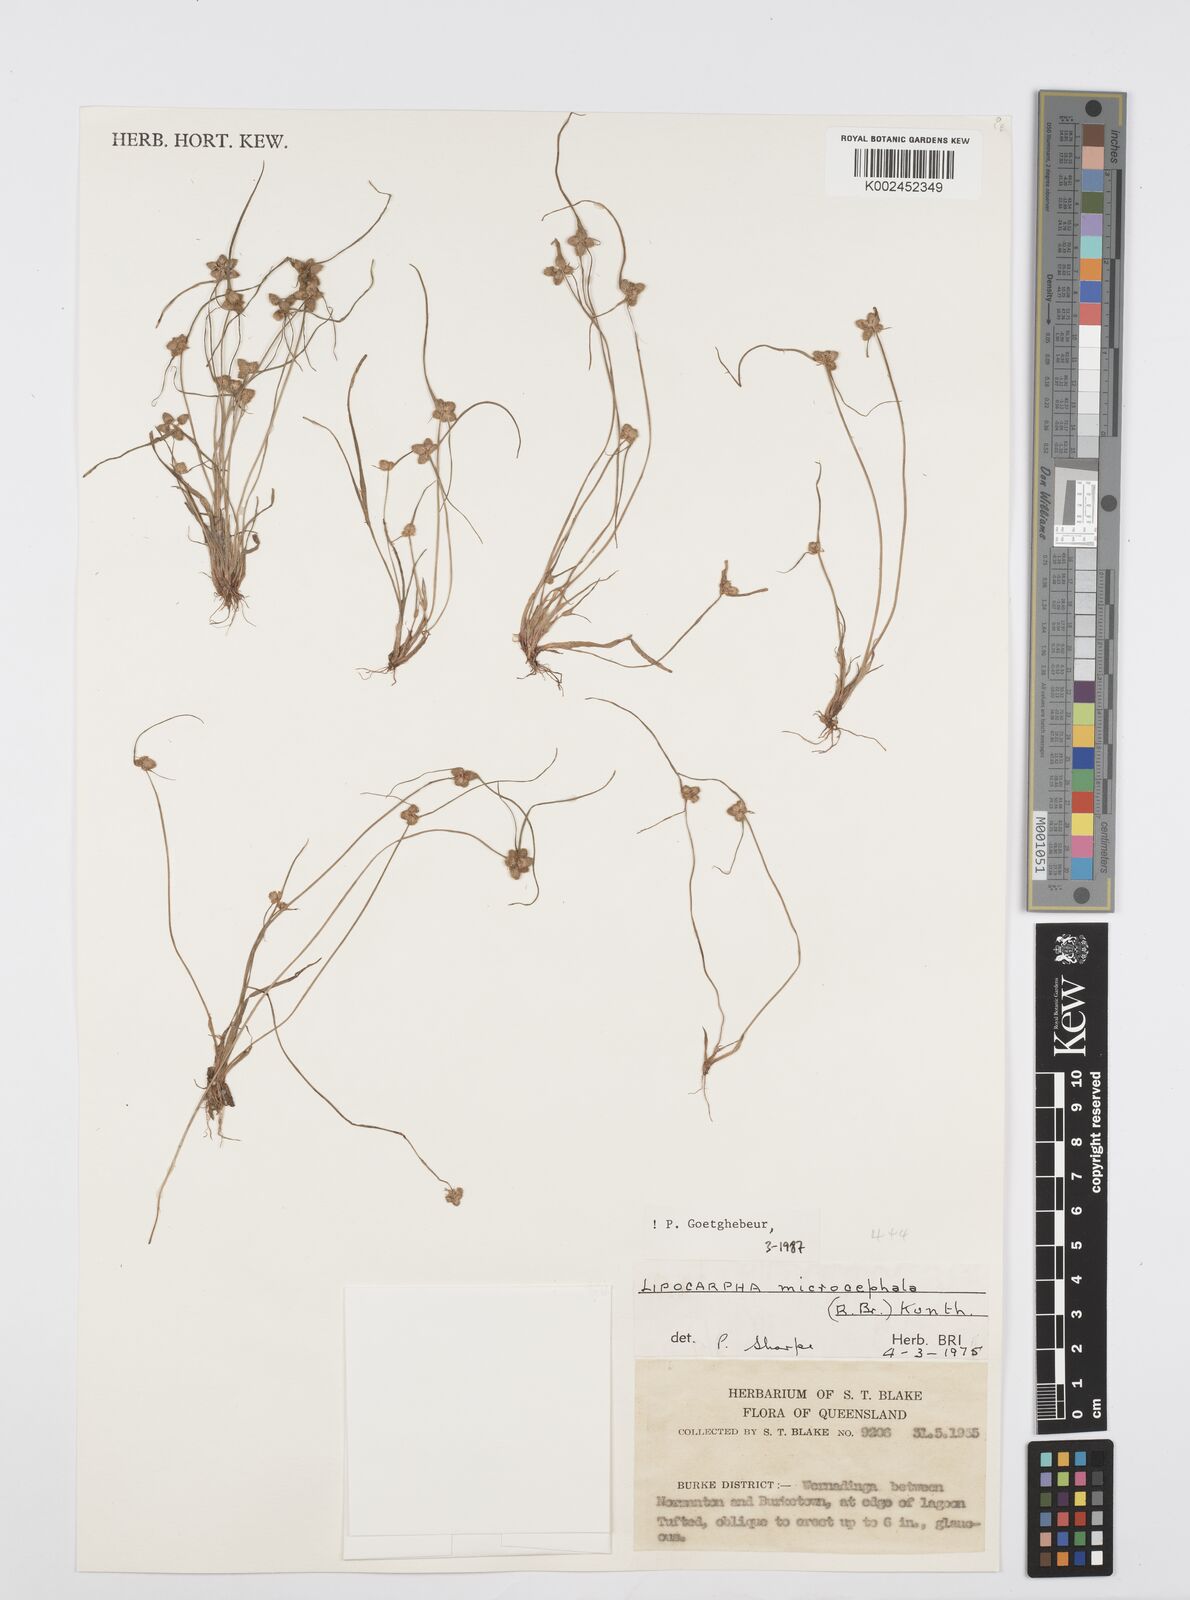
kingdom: Plantae
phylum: Tracheophyta
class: Liliopsida
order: Poales
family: Cyperaceae
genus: Cyperus
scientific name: Cyperus microcephalus
